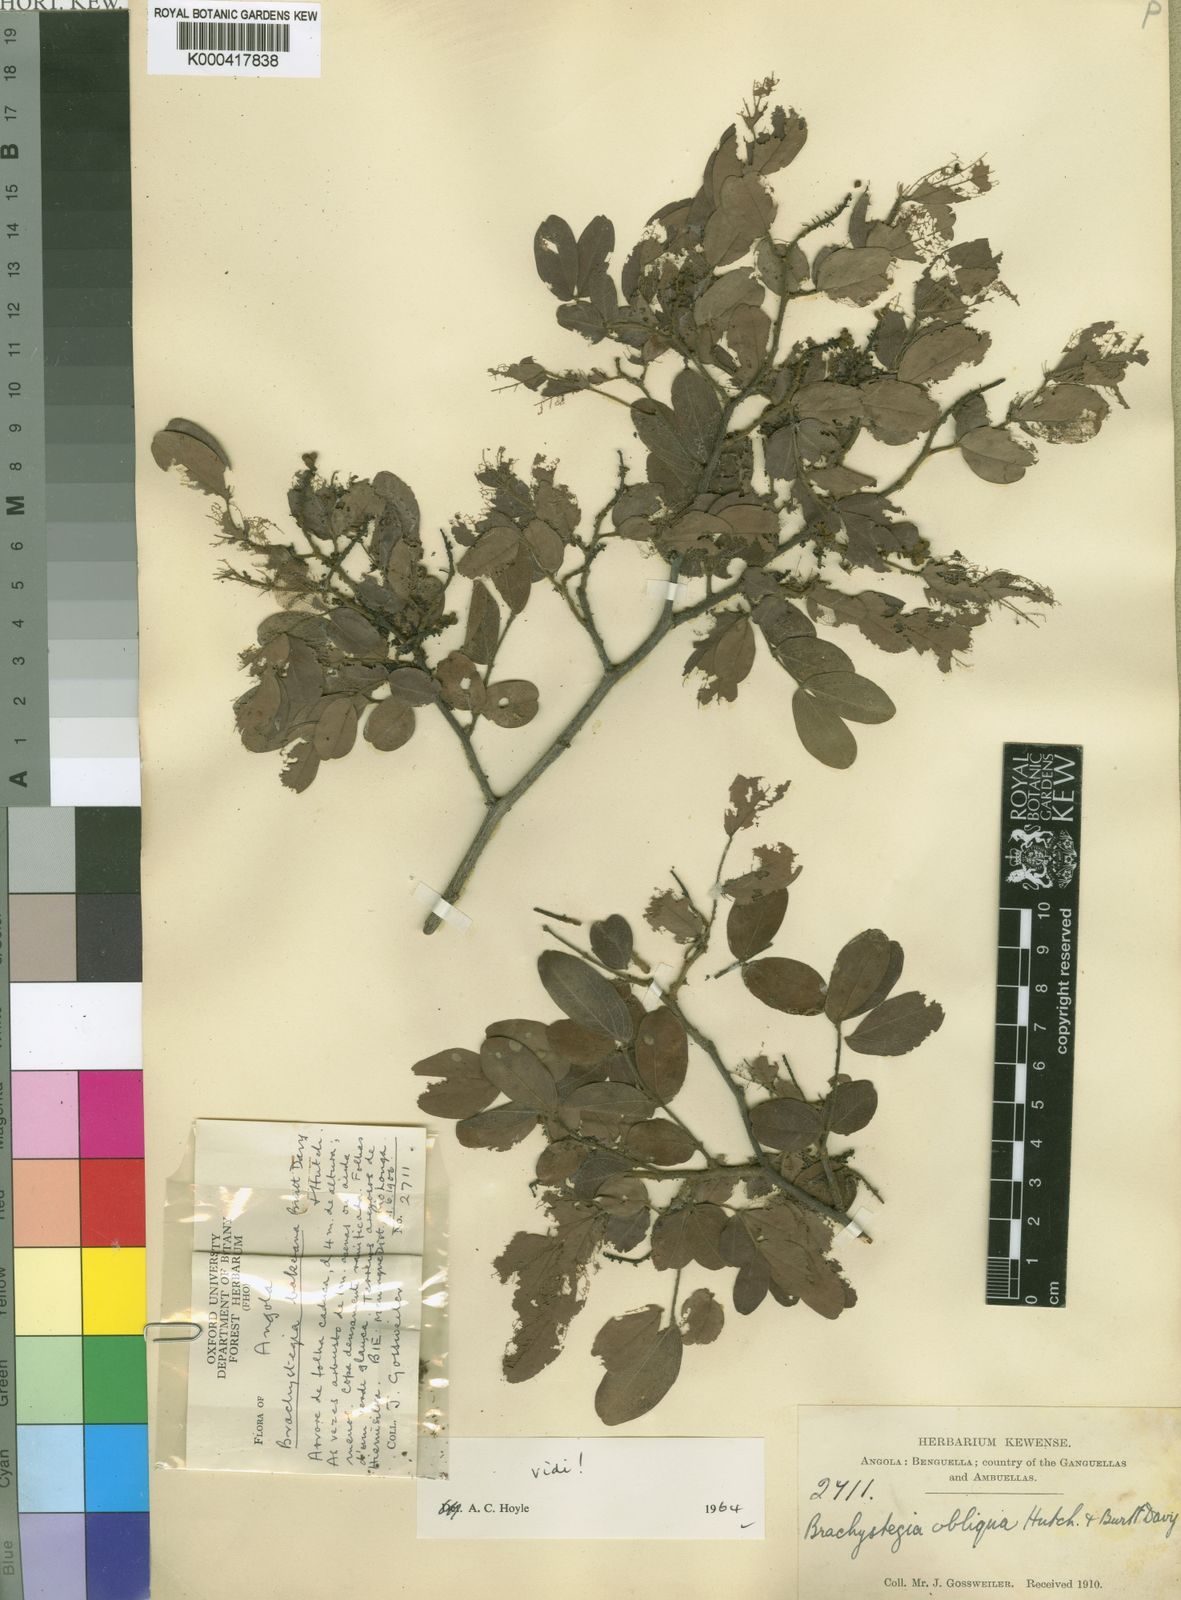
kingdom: Plantae
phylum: Tracheophyta
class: Magnoliopsida
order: Fabales
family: Fabaceae
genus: Brachystegia
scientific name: Brachystegia bakeriana
